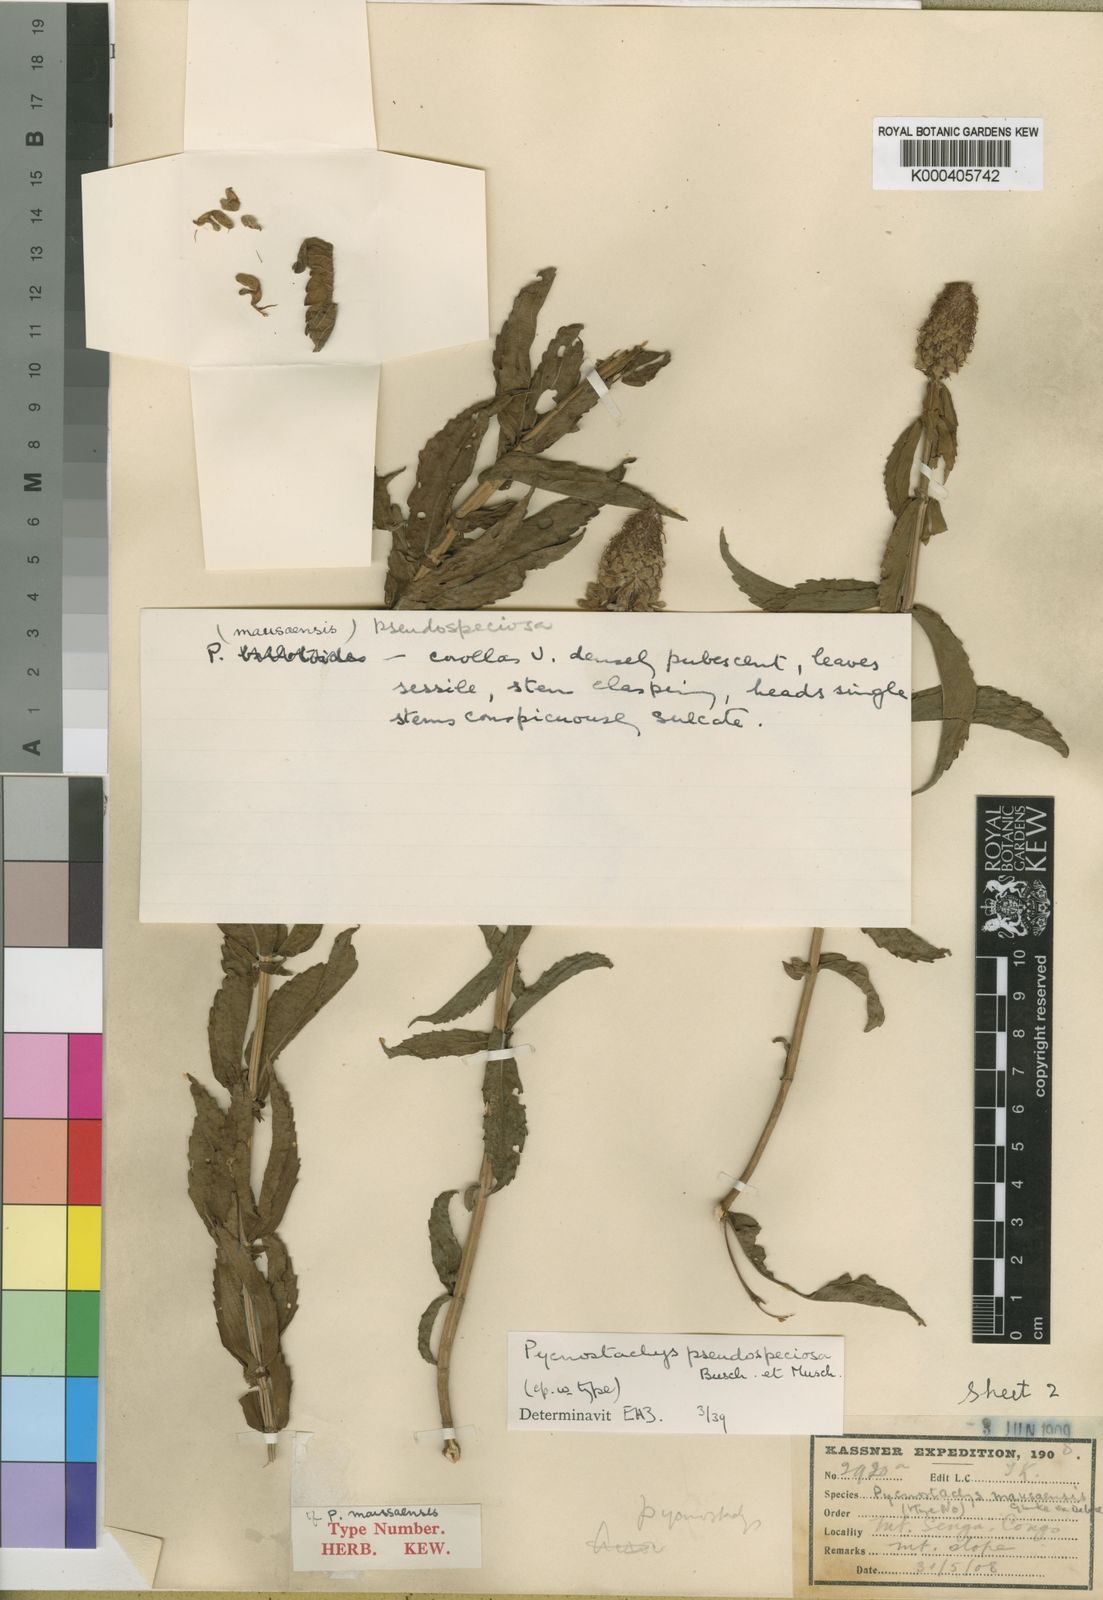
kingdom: Plantae
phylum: Tracheophyta
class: Magnoliopsida
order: Lamiales
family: Lamiaceae
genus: Coleus
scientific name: Coleus pseudospeciosus
